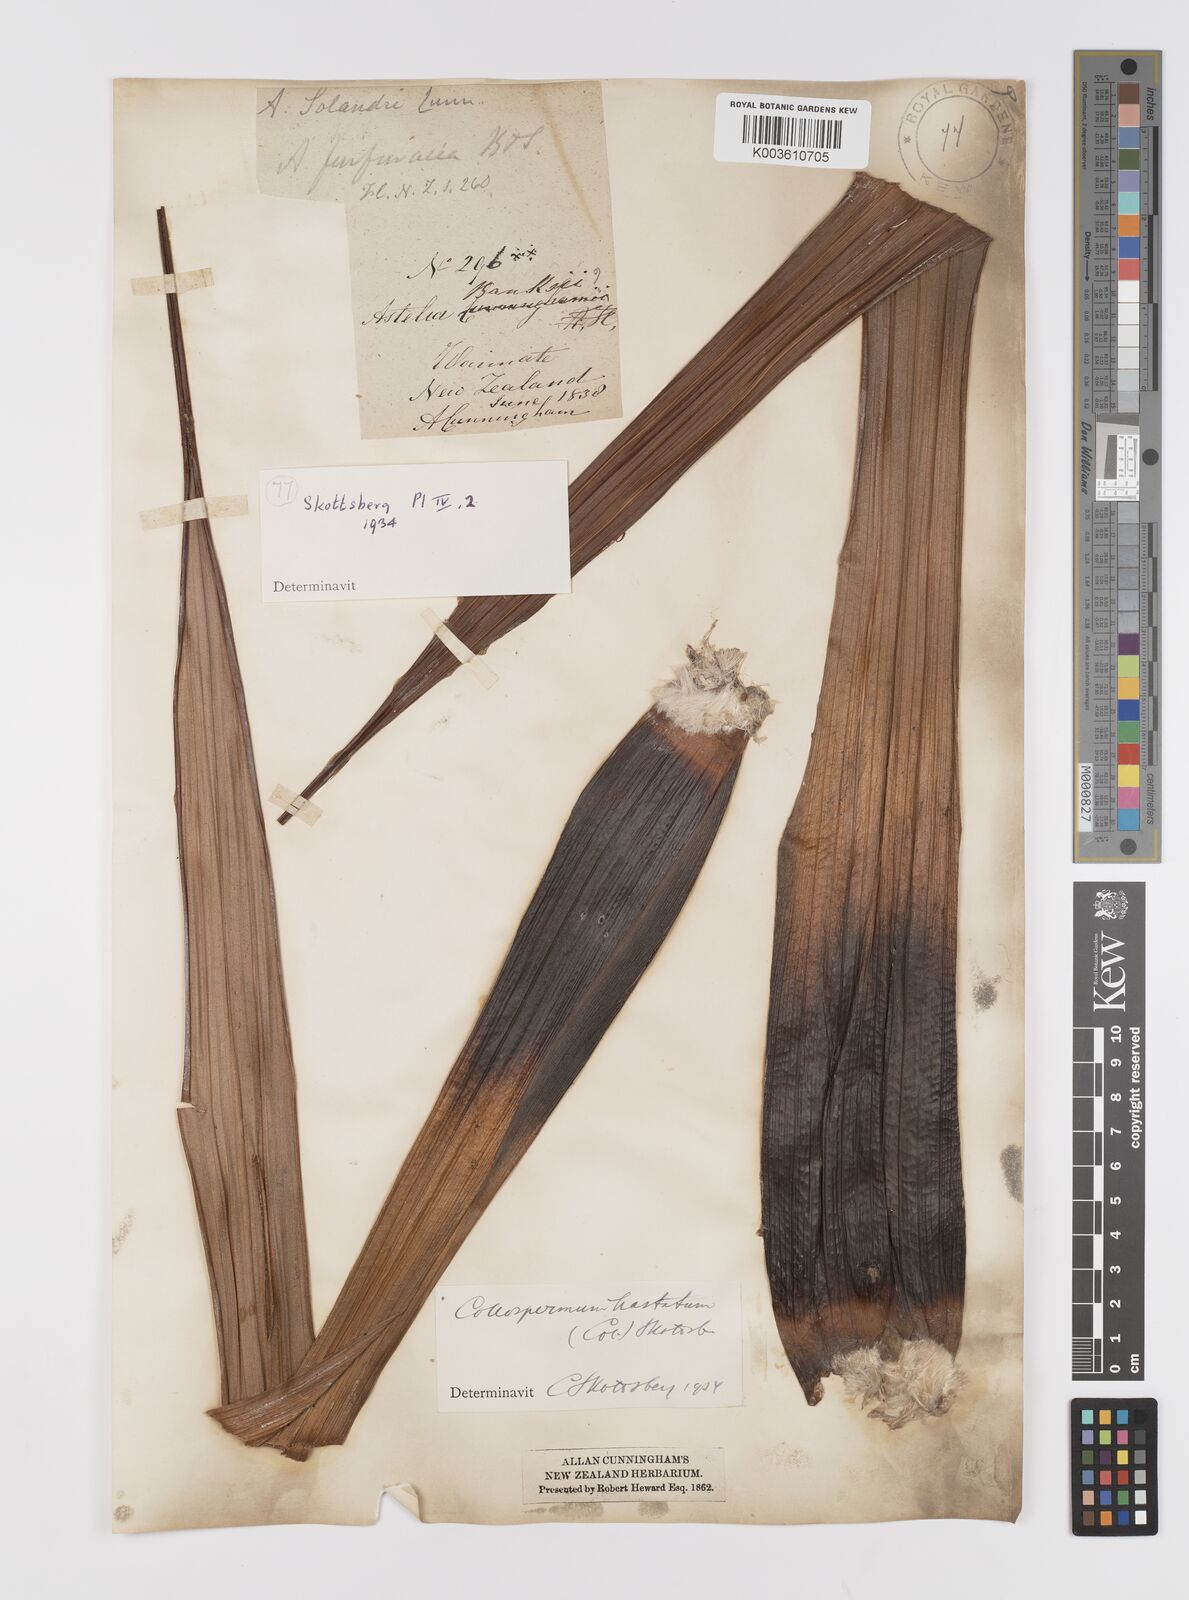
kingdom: Plantae
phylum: Tracheophyta
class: Liliopsida
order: Asparagales
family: Asteliaceae
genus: Astelia
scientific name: Astelia hastata
